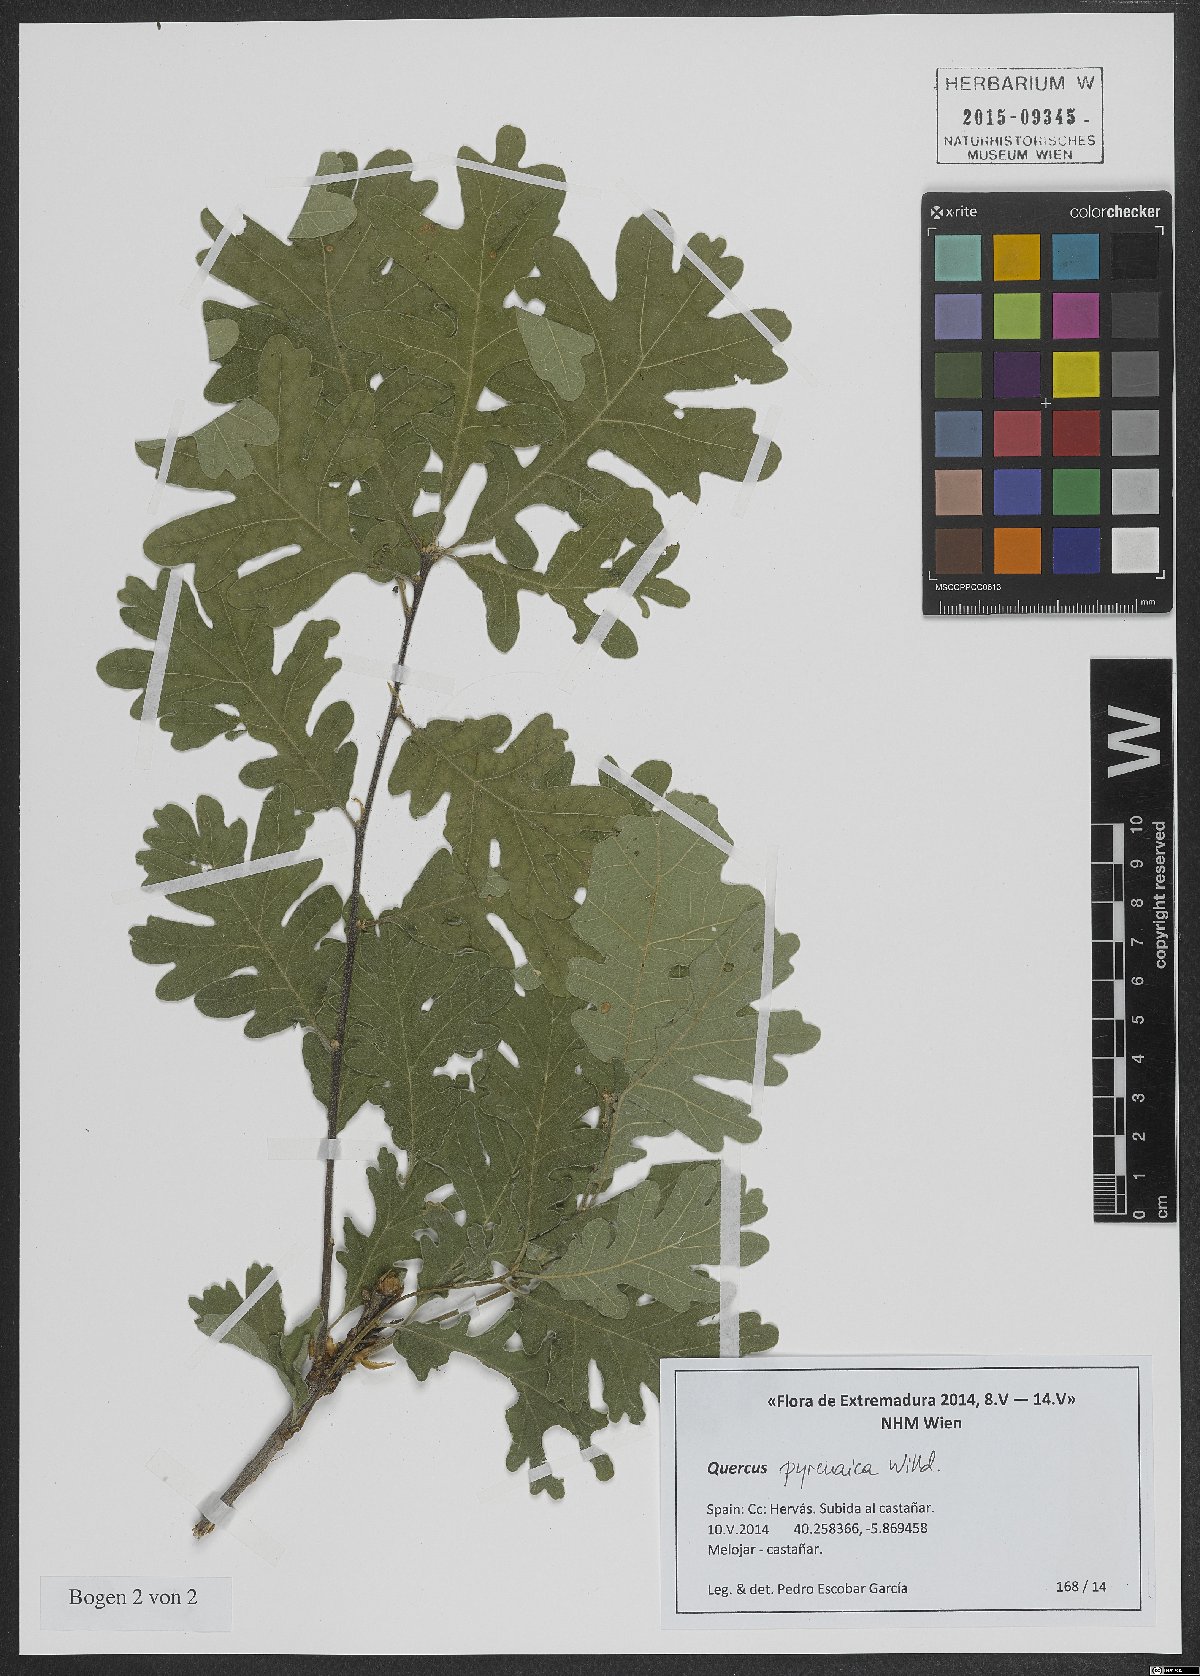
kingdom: Plantae
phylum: Tracheophyta
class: Magnoliopsida
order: Fagales
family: Fagaceae
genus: Quercus
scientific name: Quercus pyrenaica
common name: Pyrenean oak
